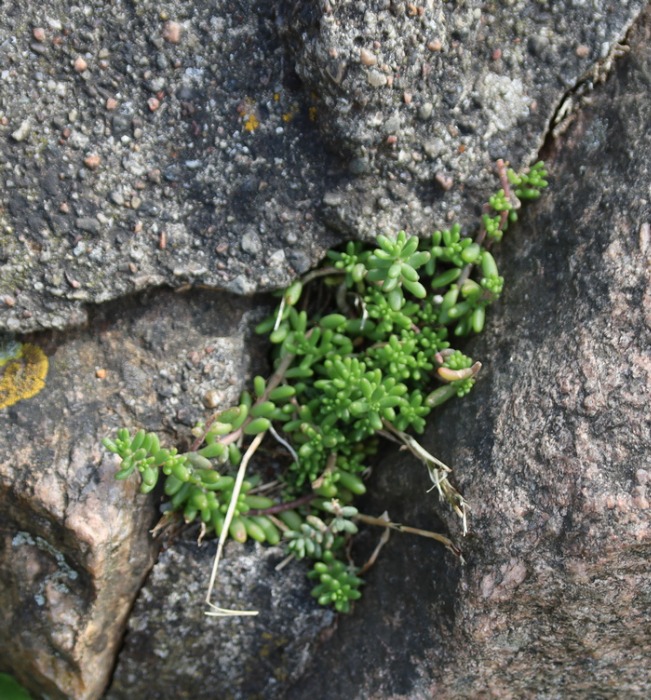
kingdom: Plantae
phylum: Tracheophyta
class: Magnoliopsida
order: Saxifragales
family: Crassulaceae
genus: Sedum
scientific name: Sedum album
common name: Hvid stenurt
